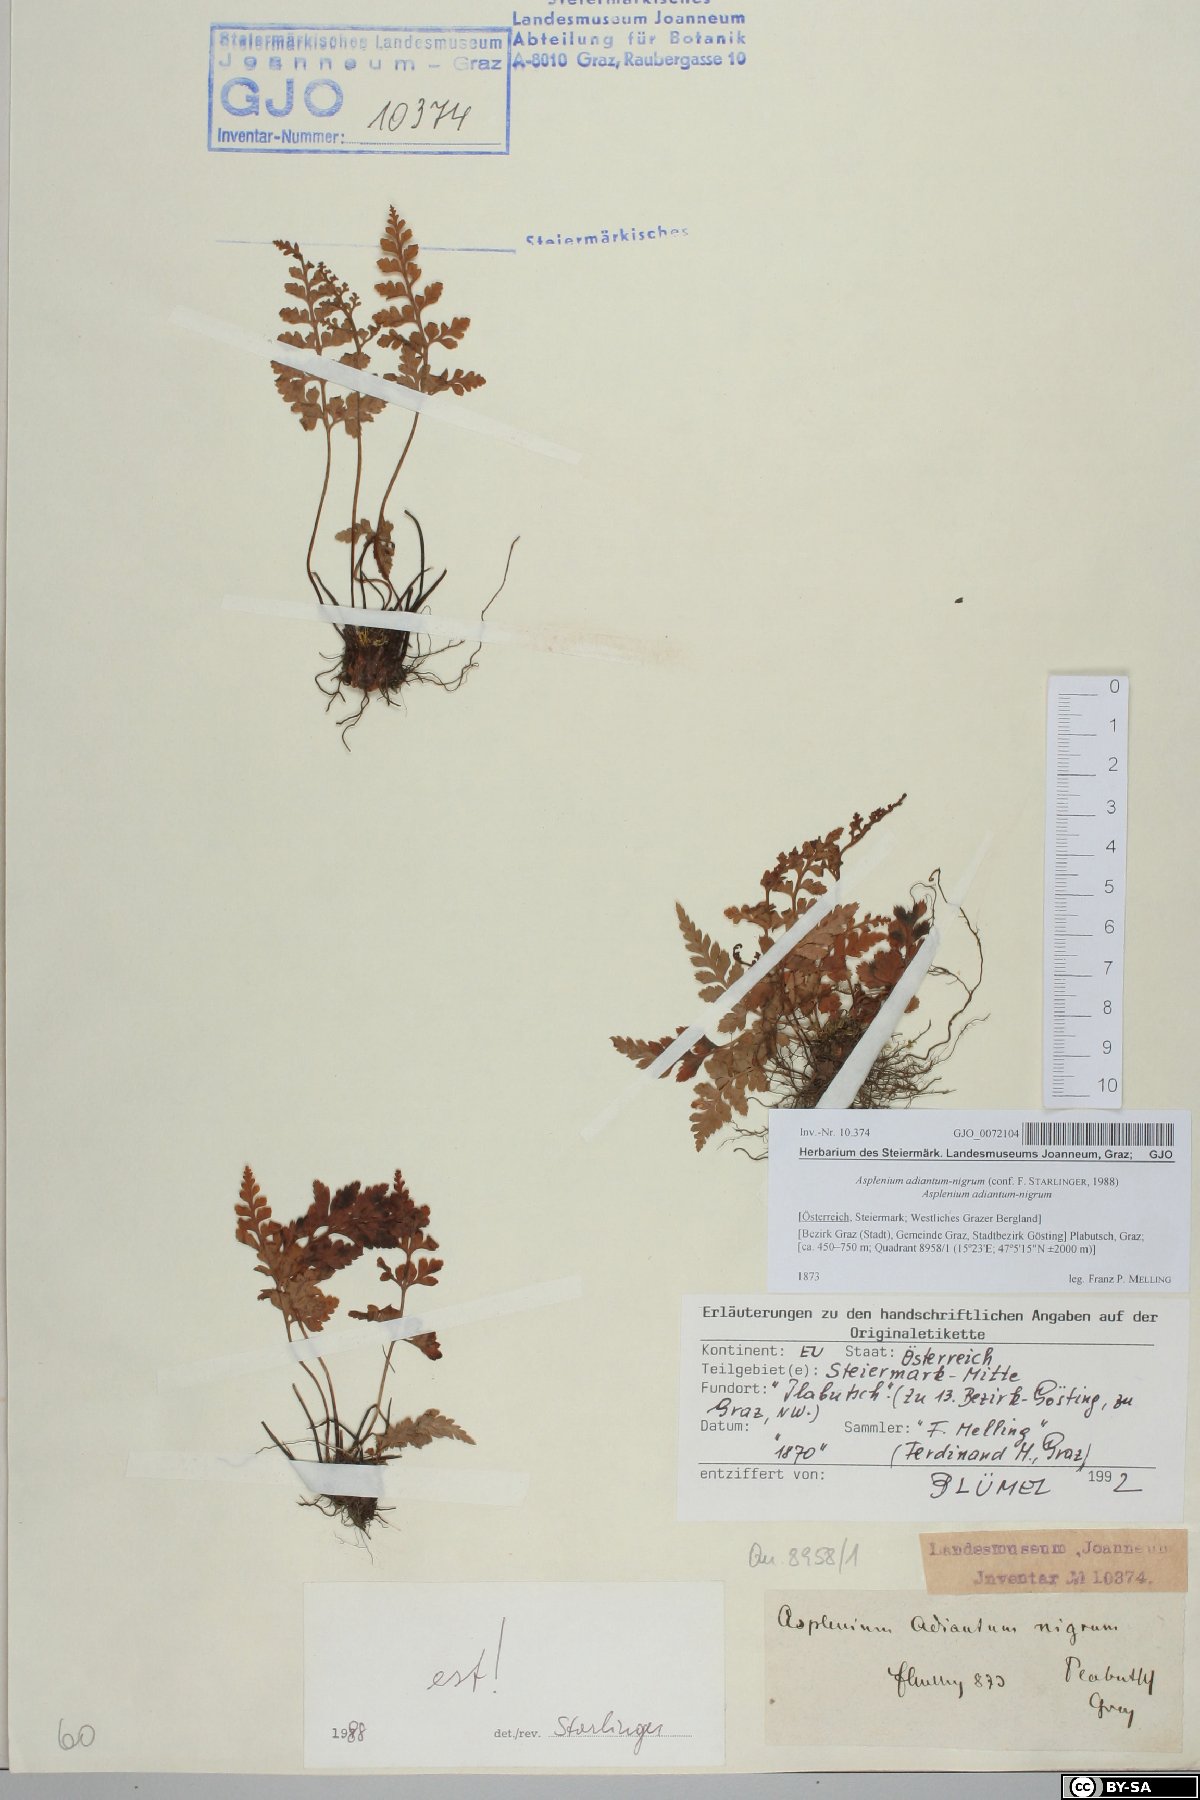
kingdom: Plantae
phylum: Tracheophyta
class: Polypodiopsida
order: Polypodiales
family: Aspleniaceae
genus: Asplenium
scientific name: Asplenium adiantum-nigrum
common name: Black spleenwort
